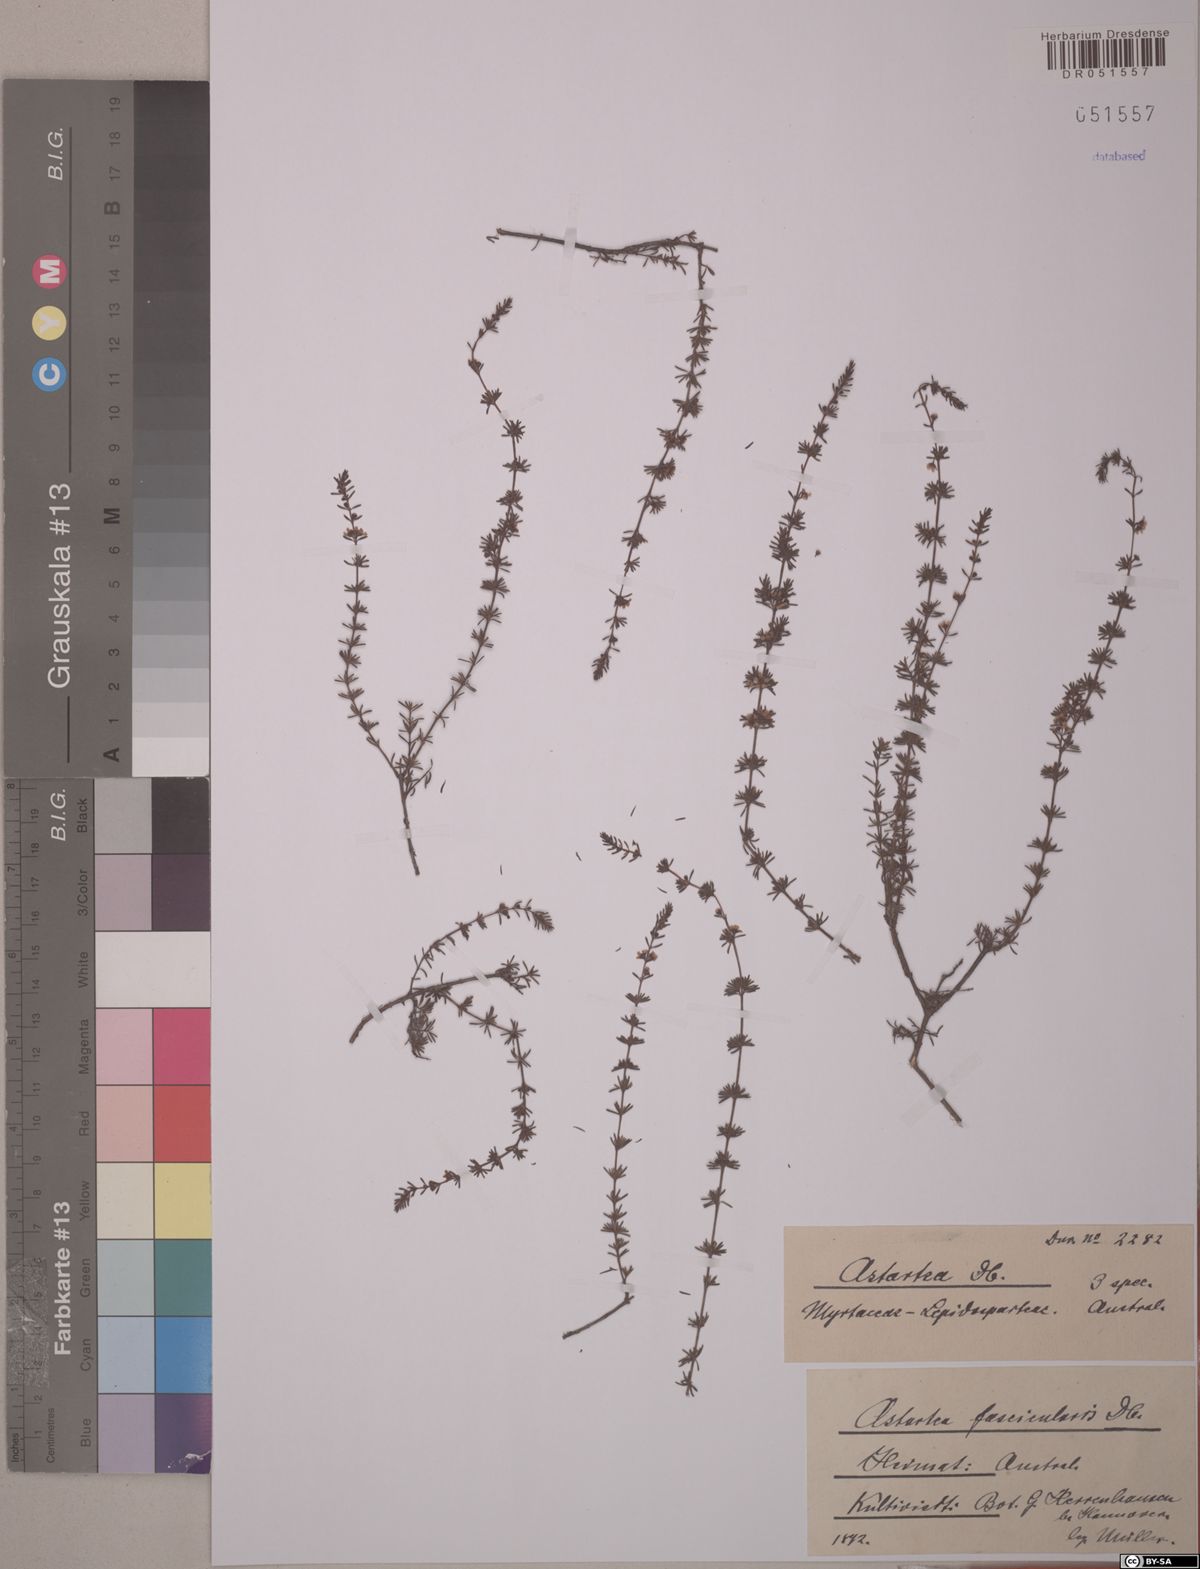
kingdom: Plantae
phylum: Tracheophyta
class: Magnoliopsida
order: Myrtales
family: Myrtaceae
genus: Astartea
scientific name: Astartea fascicularis
